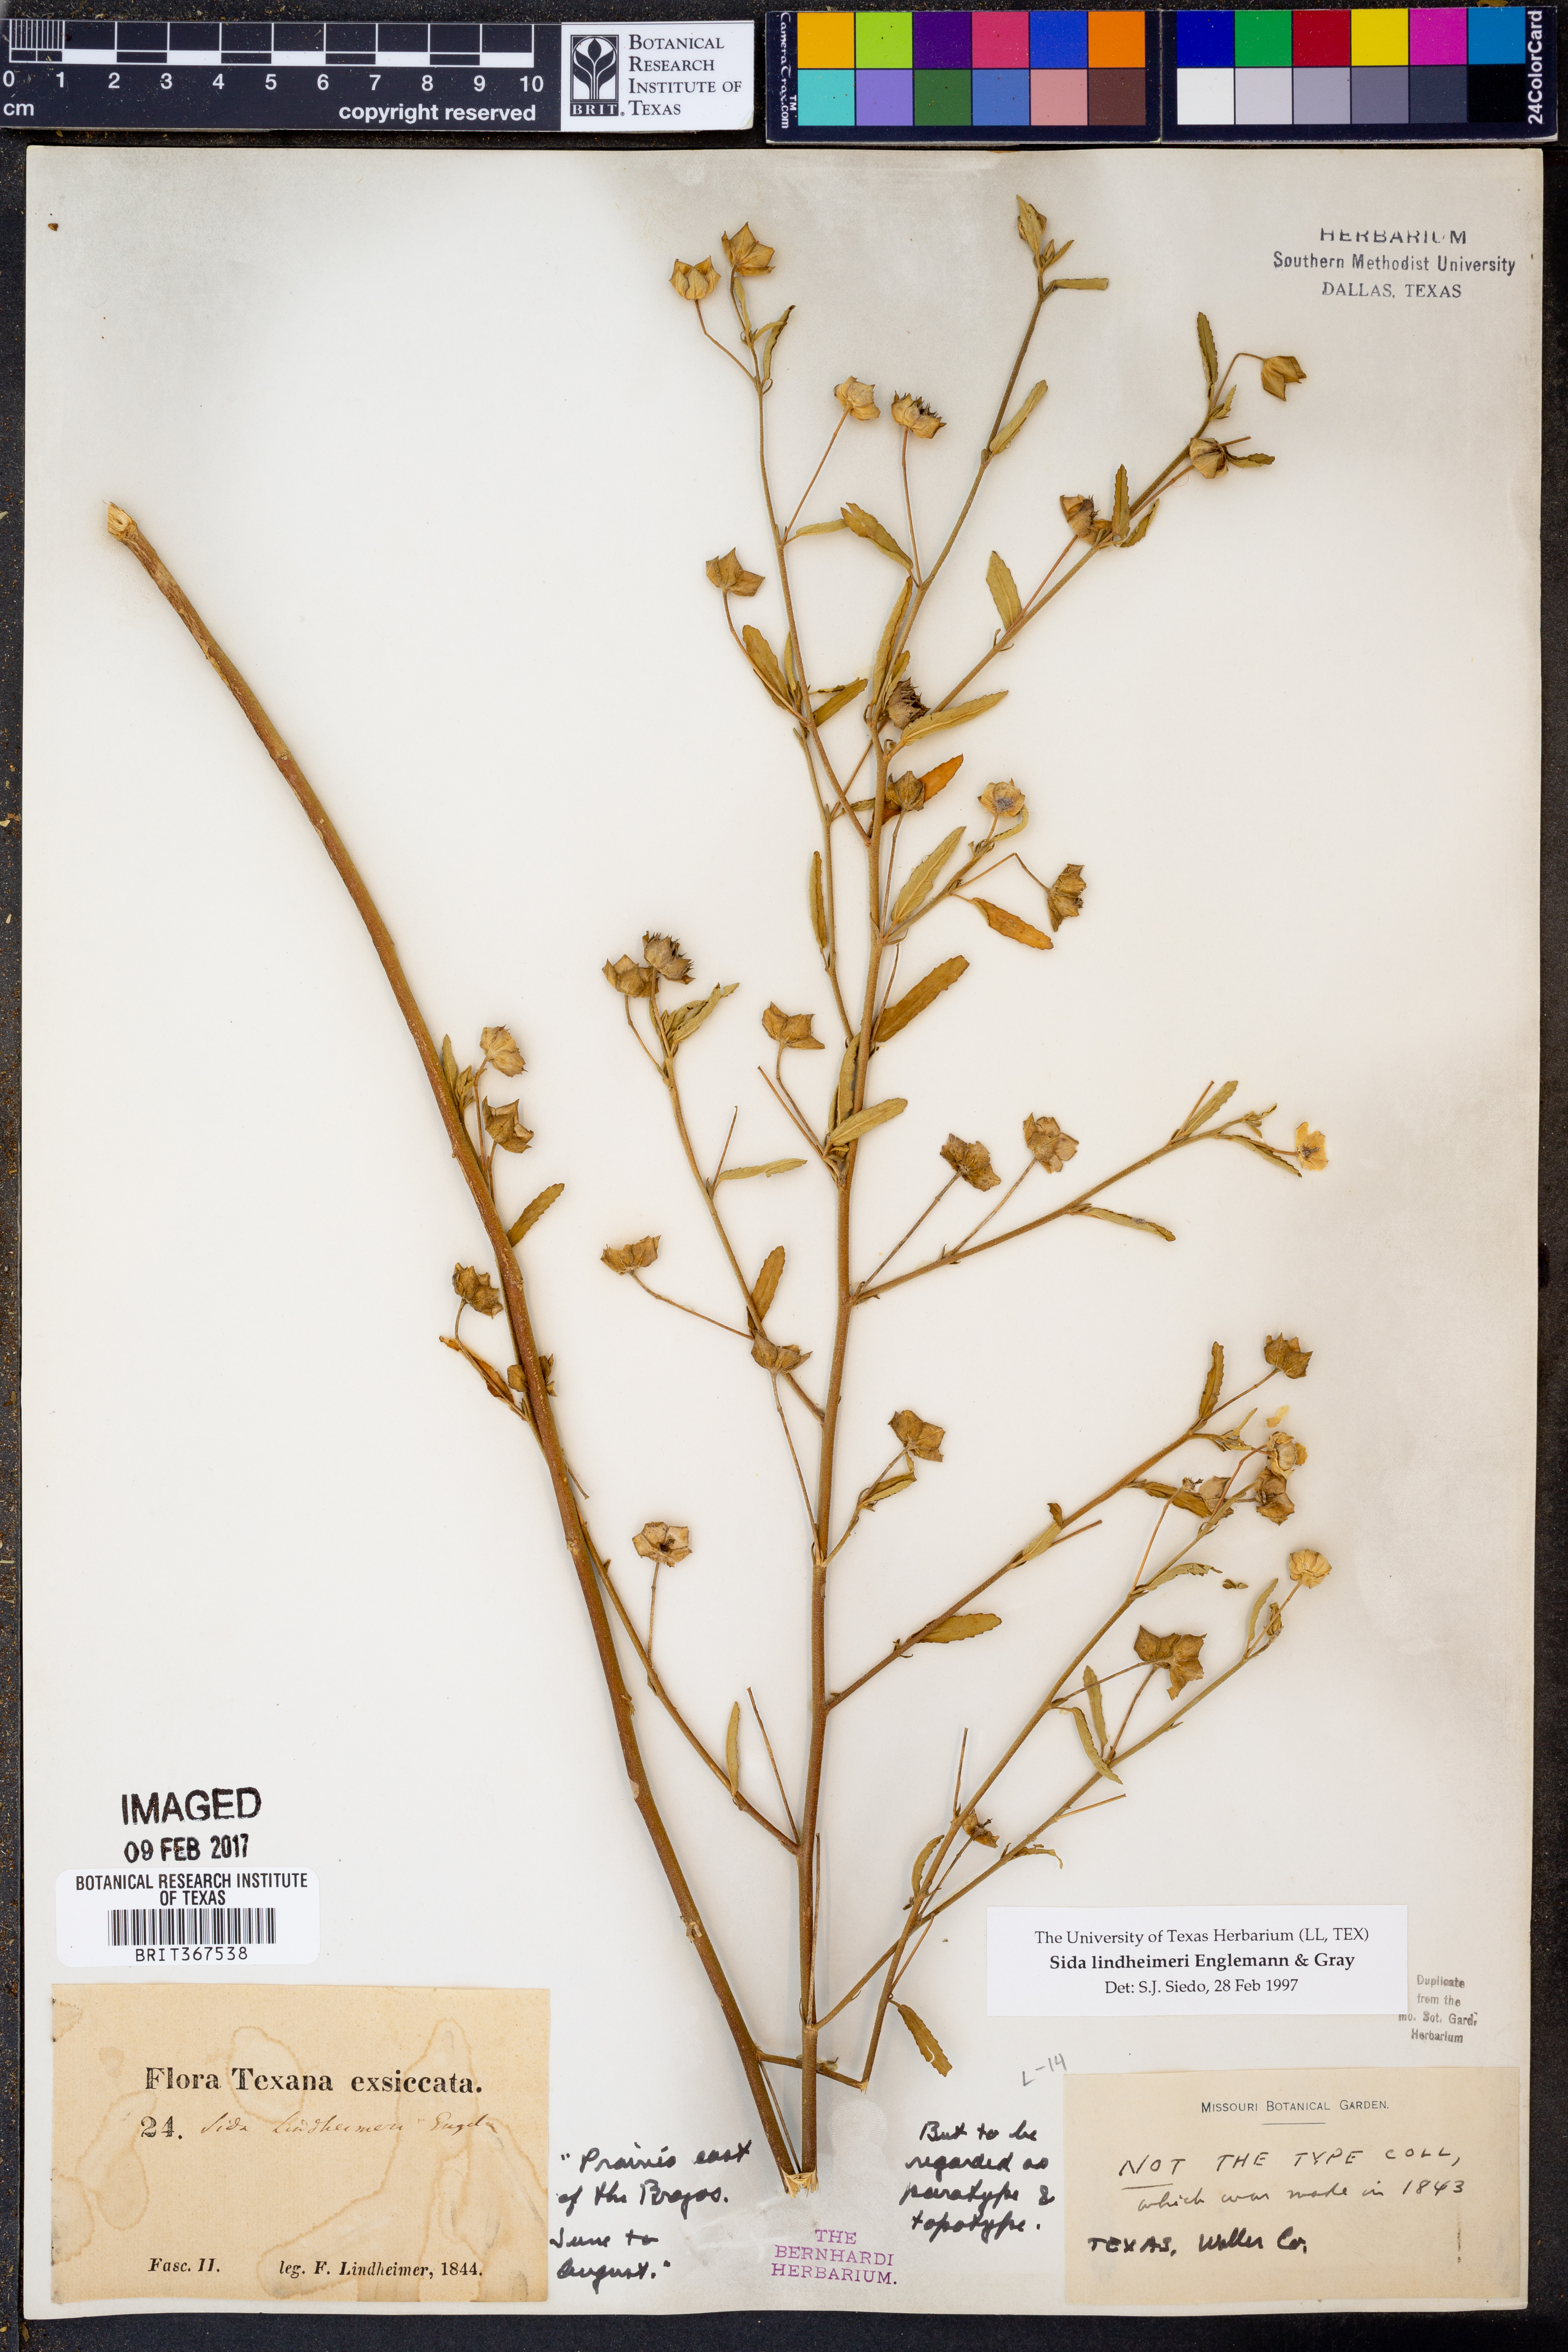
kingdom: Plantae
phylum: Tracheophyta
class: Magnoliopsida
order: Malvales
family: Malvaceae
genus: Sida
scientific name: Sida lindheimeri
